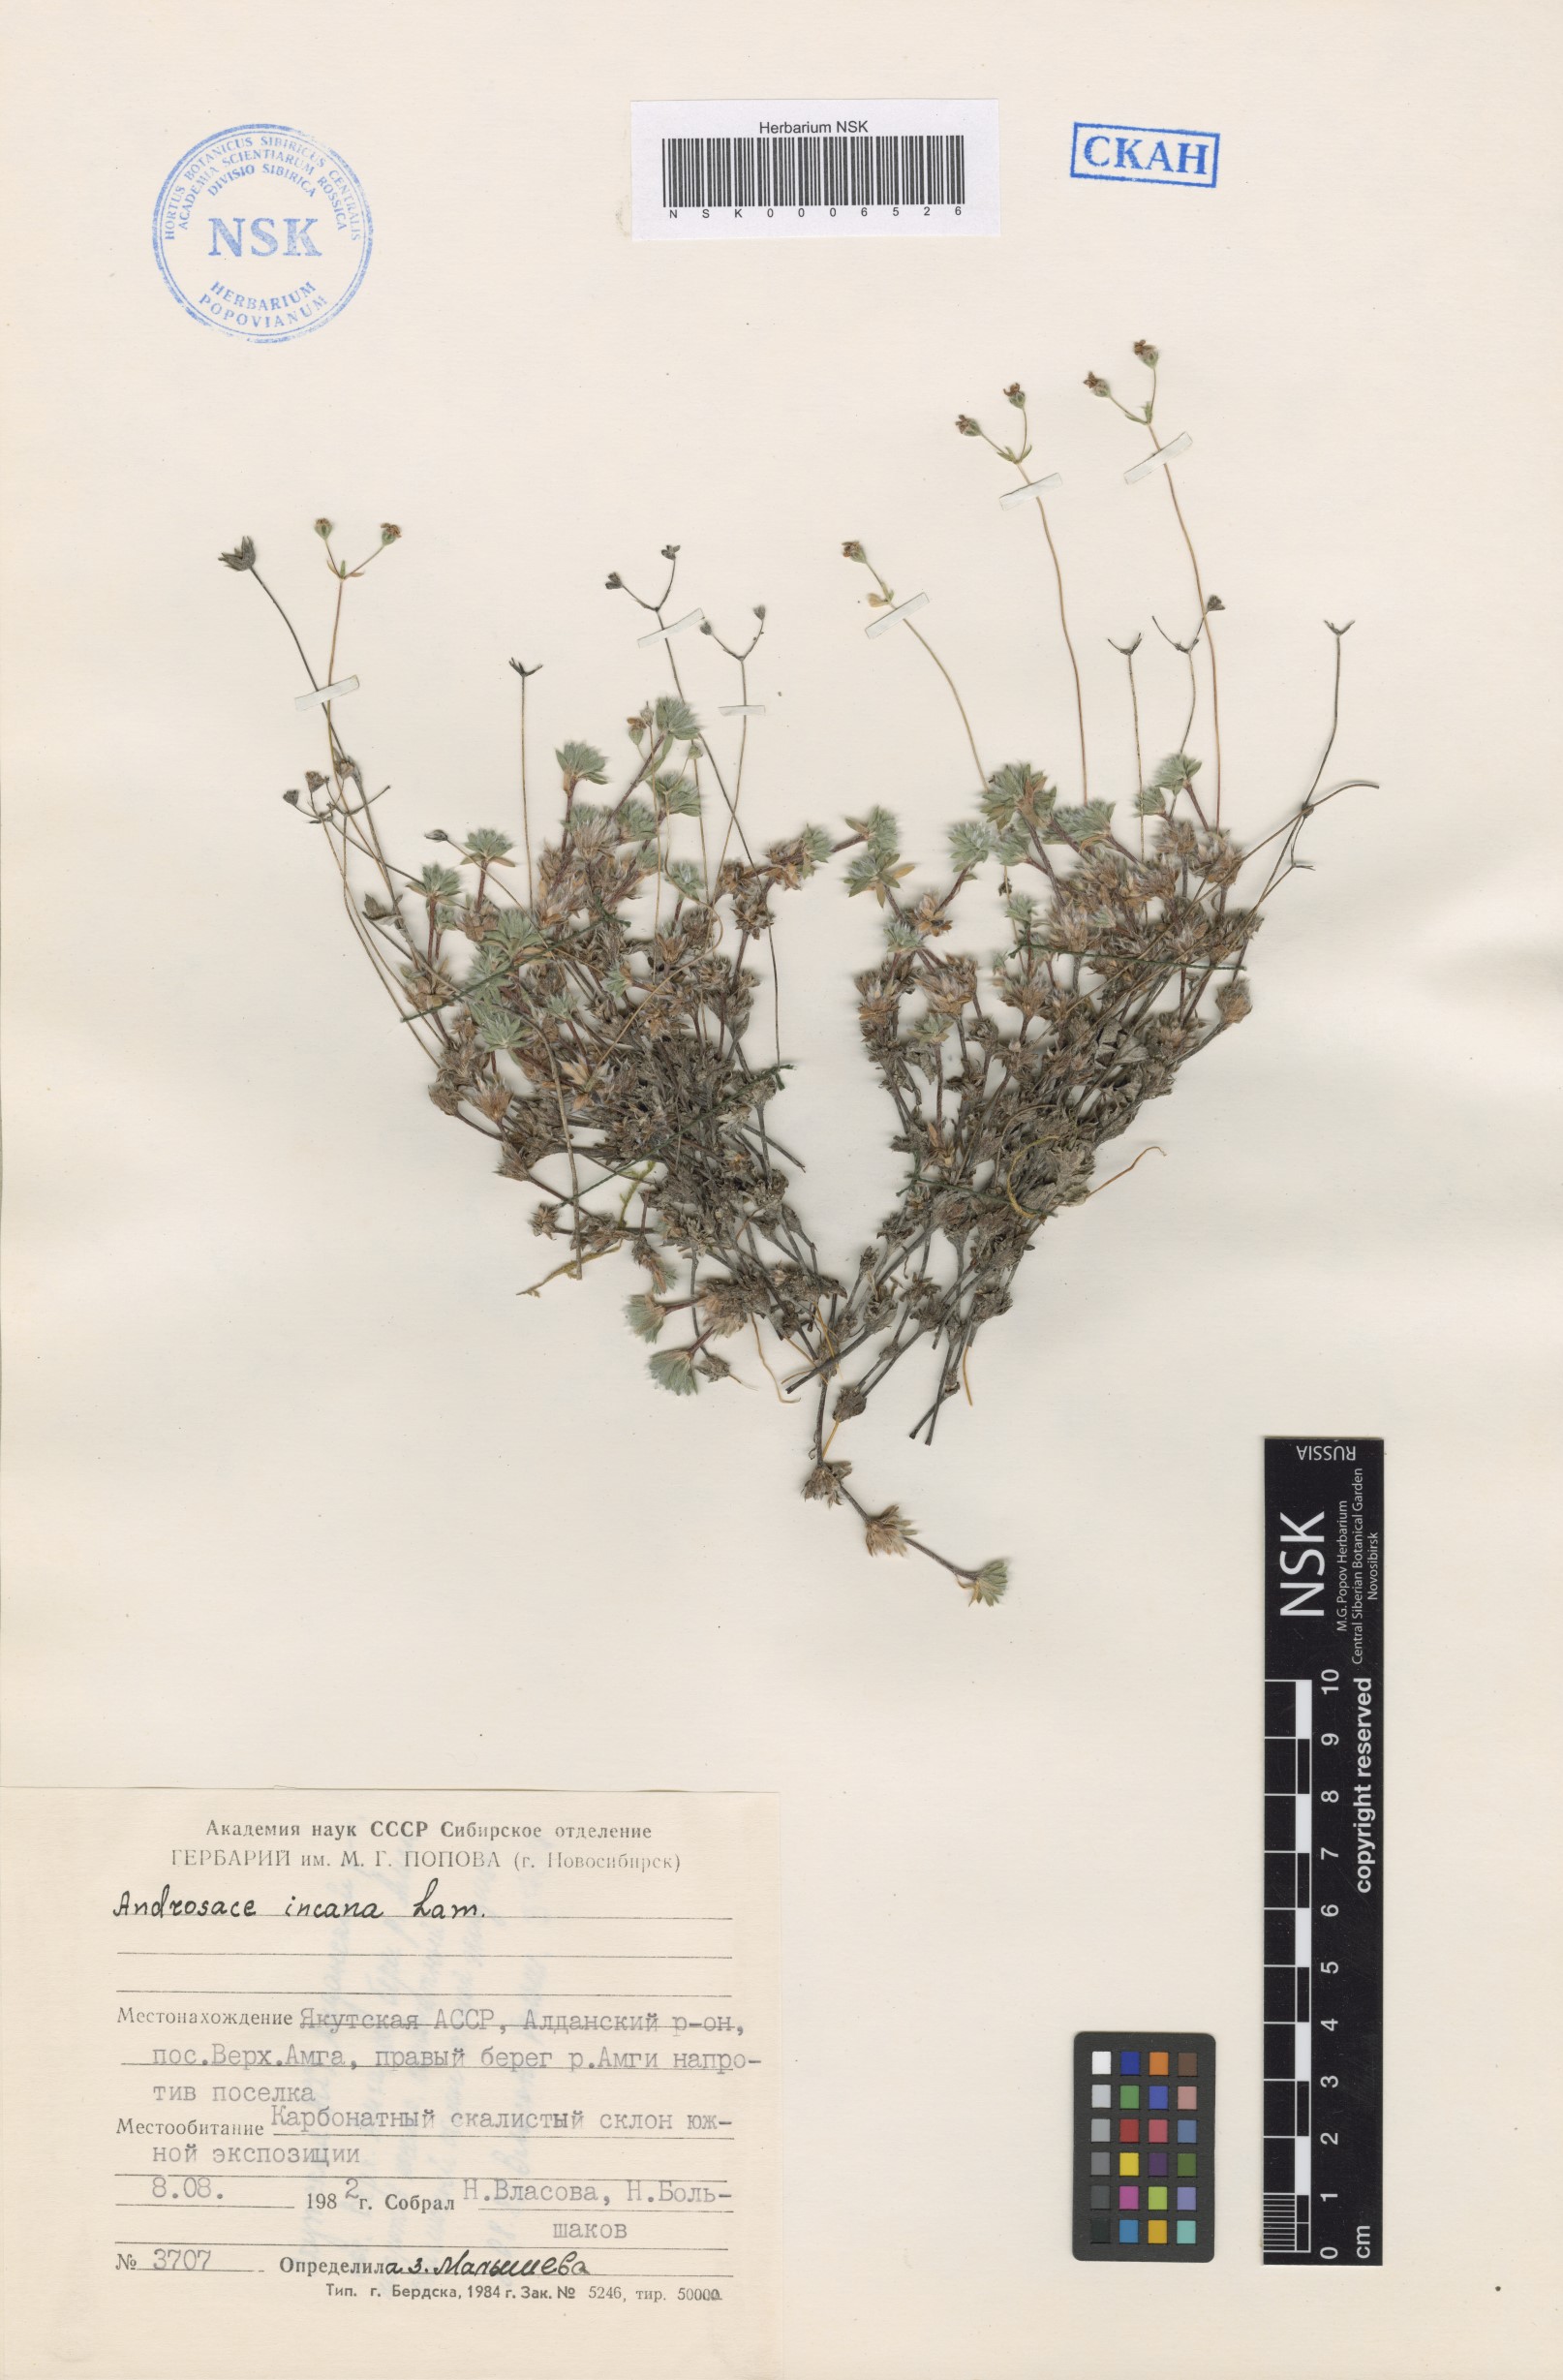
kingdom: Plantae
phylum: Tracheophyta
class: Magnoliopsida
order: Ericales
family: Primulaceae
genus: Androsace
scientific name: Androsace incana
